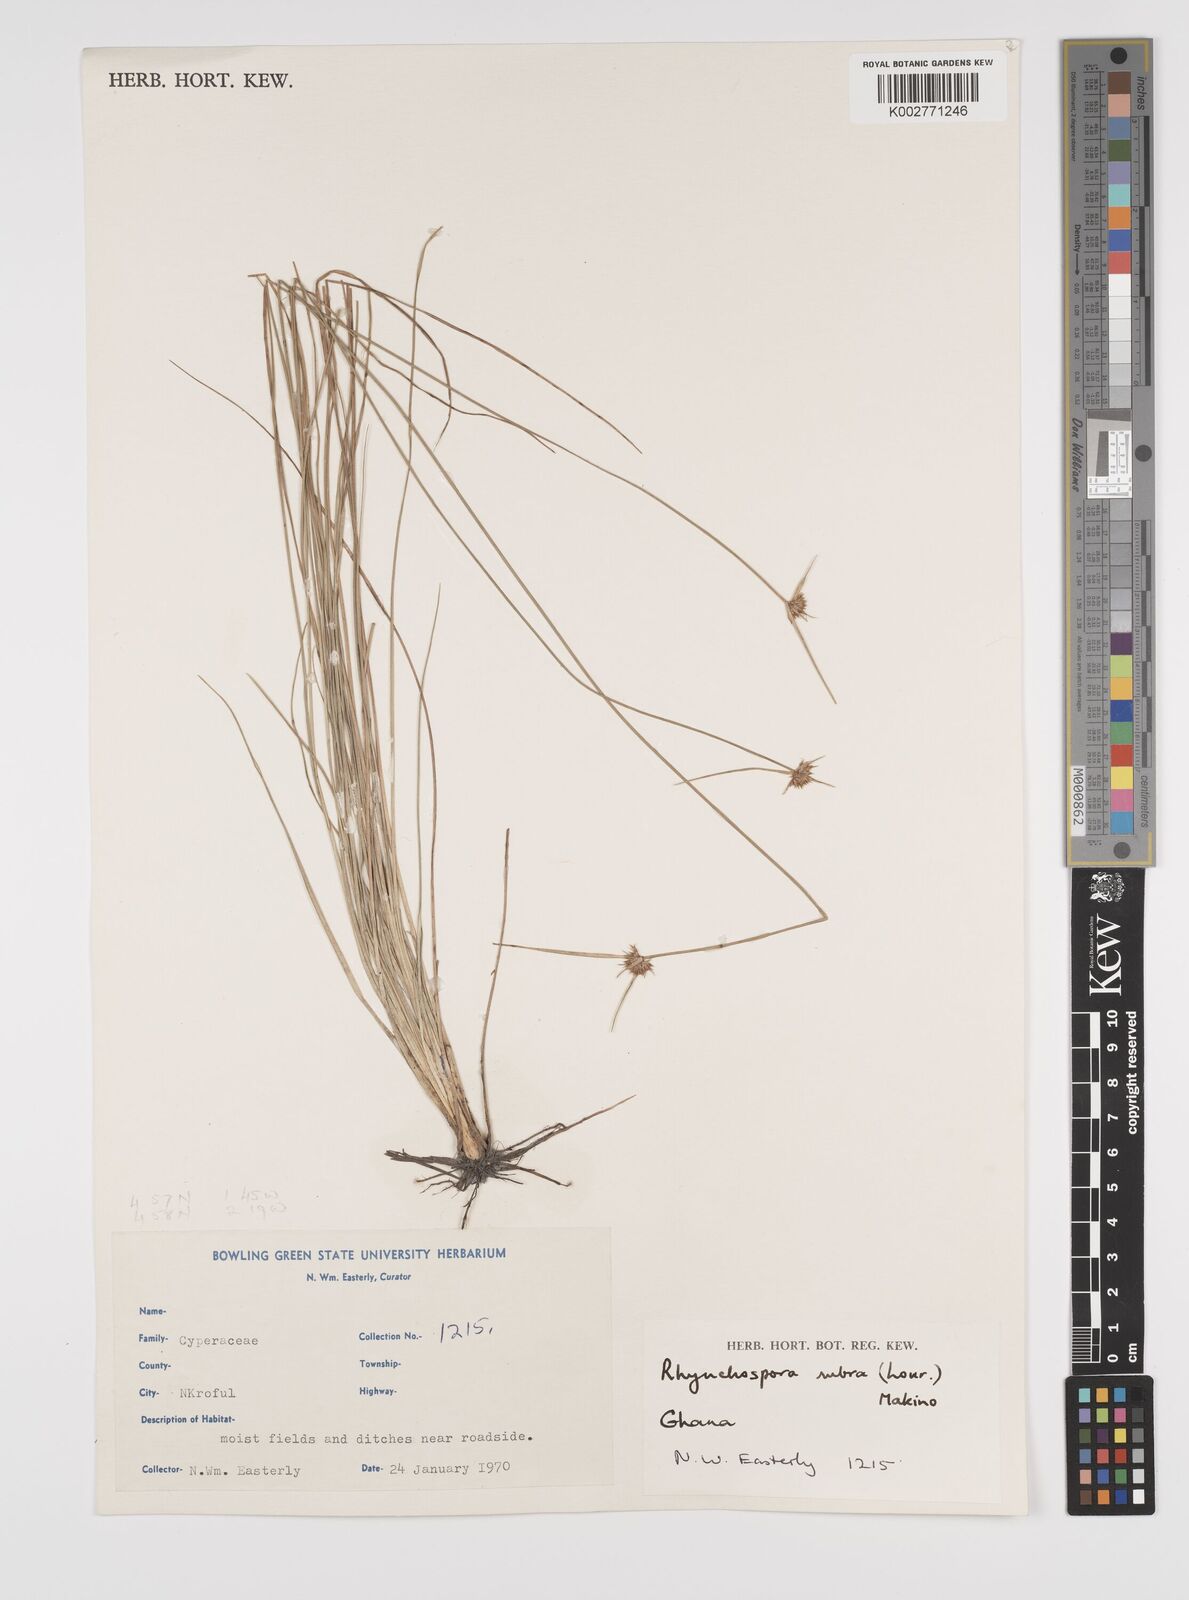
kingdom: Plantae
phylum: Tracheophyta
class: Liliopsida
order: Poales
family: Cyperaceae
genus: Rhynchospora
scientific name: Rhynchospora rubra
